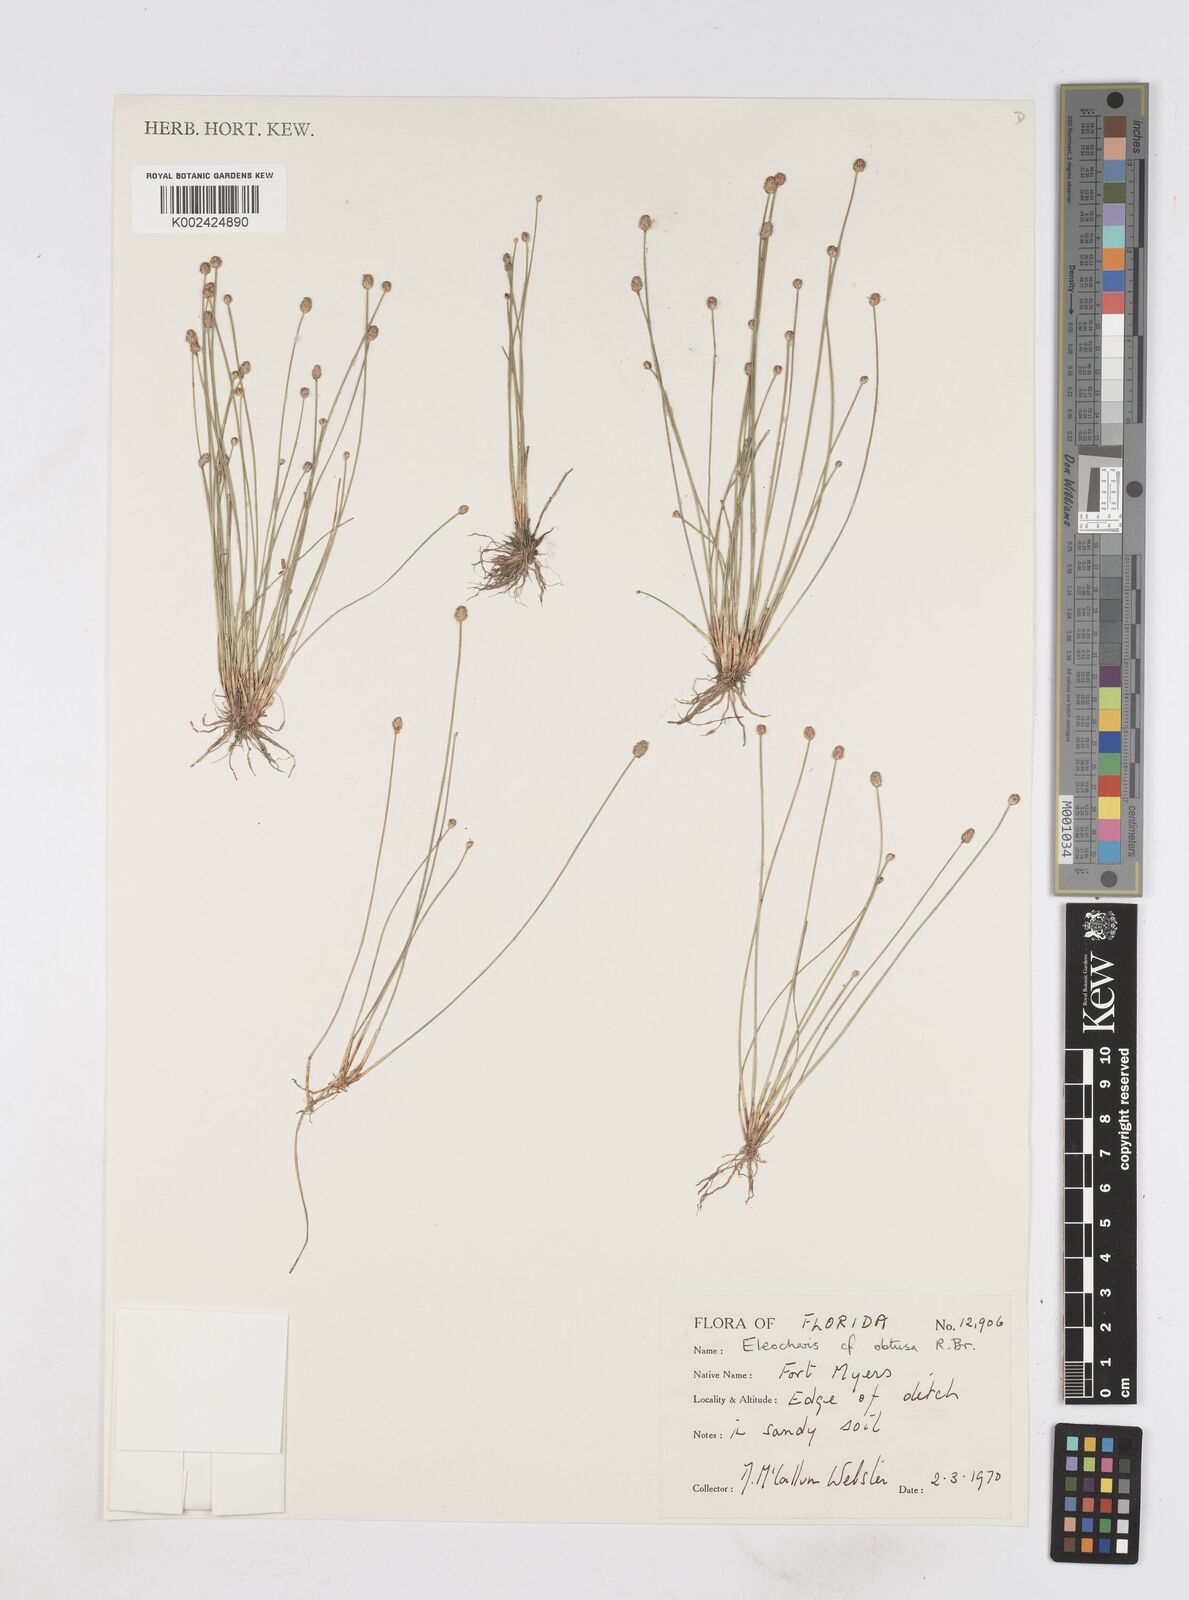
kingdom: Plantae
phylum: Tracheophyta
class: Liliopsida
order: Poales
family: Cyperaceae
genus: Eleocharis
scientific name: Eleocharis obtusa
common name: Blunt spikerush
